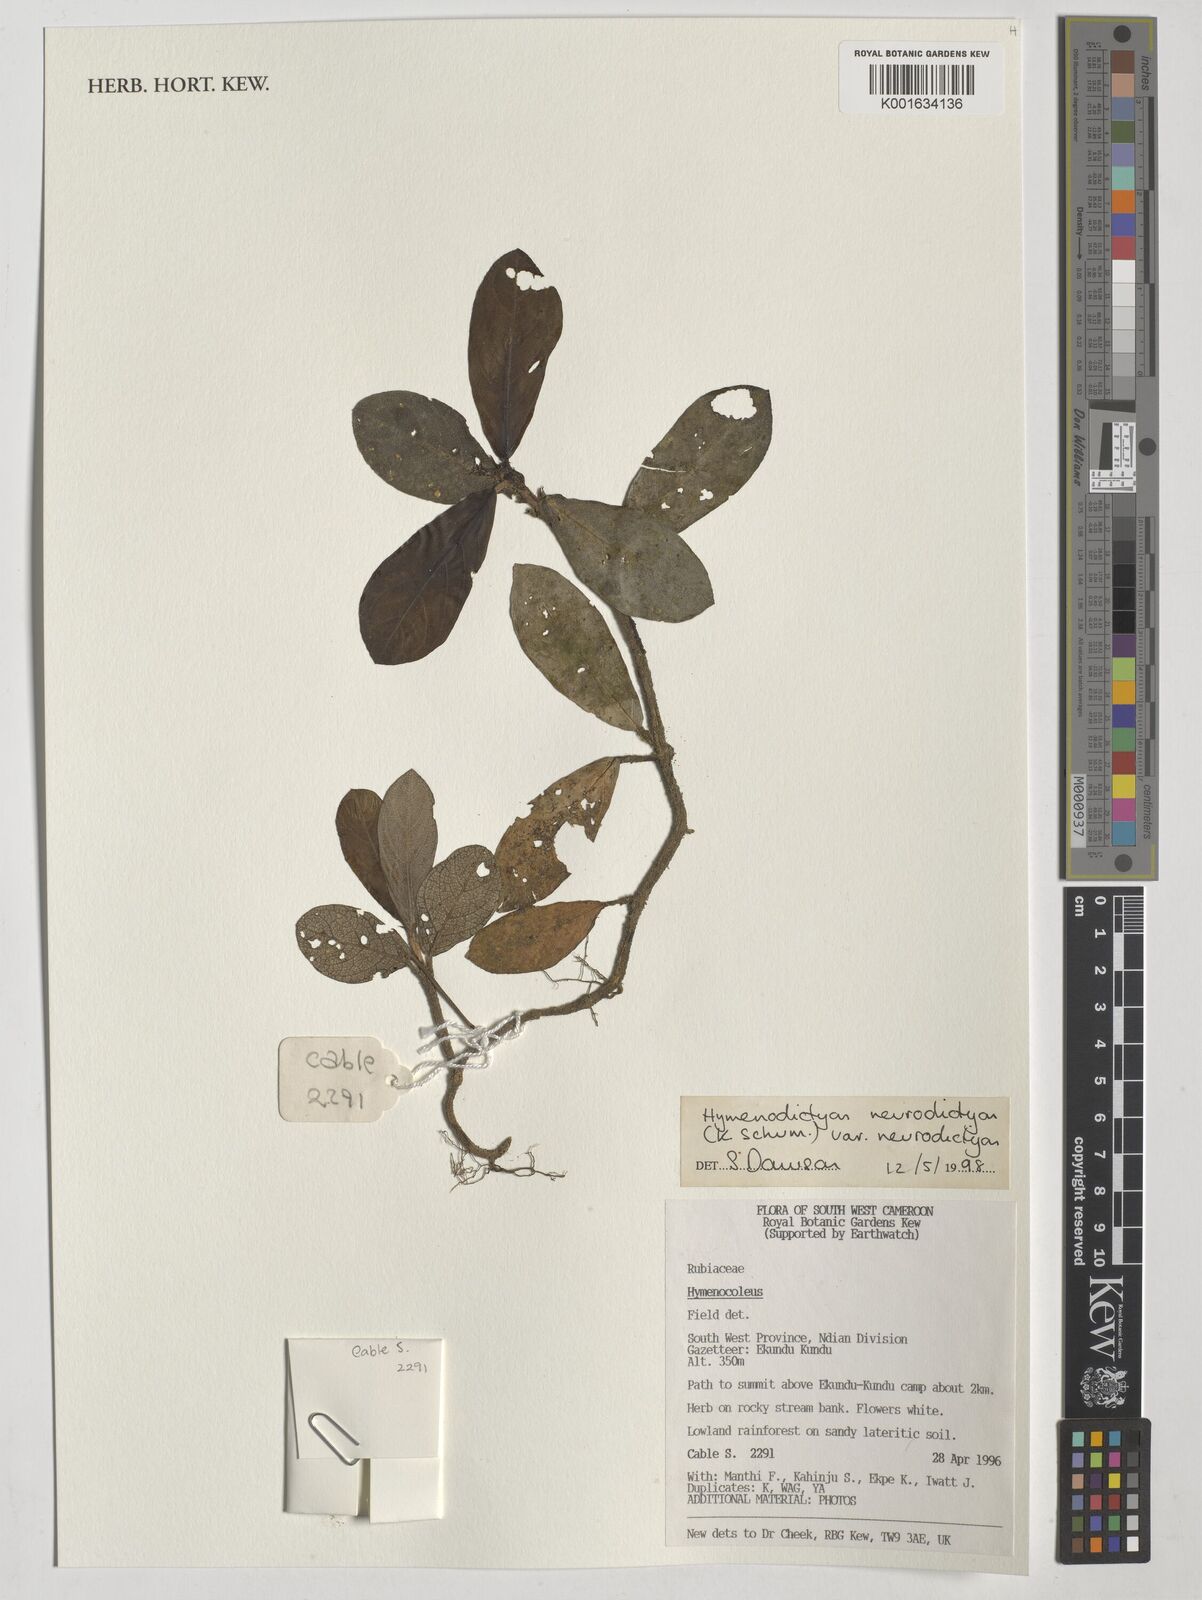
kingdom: Plantae
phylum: Tracheophyta
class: Magnoliopsida
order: Gentianales
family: Rubiaceae
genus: Hymenodictyon
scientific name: Hymenodictyon
